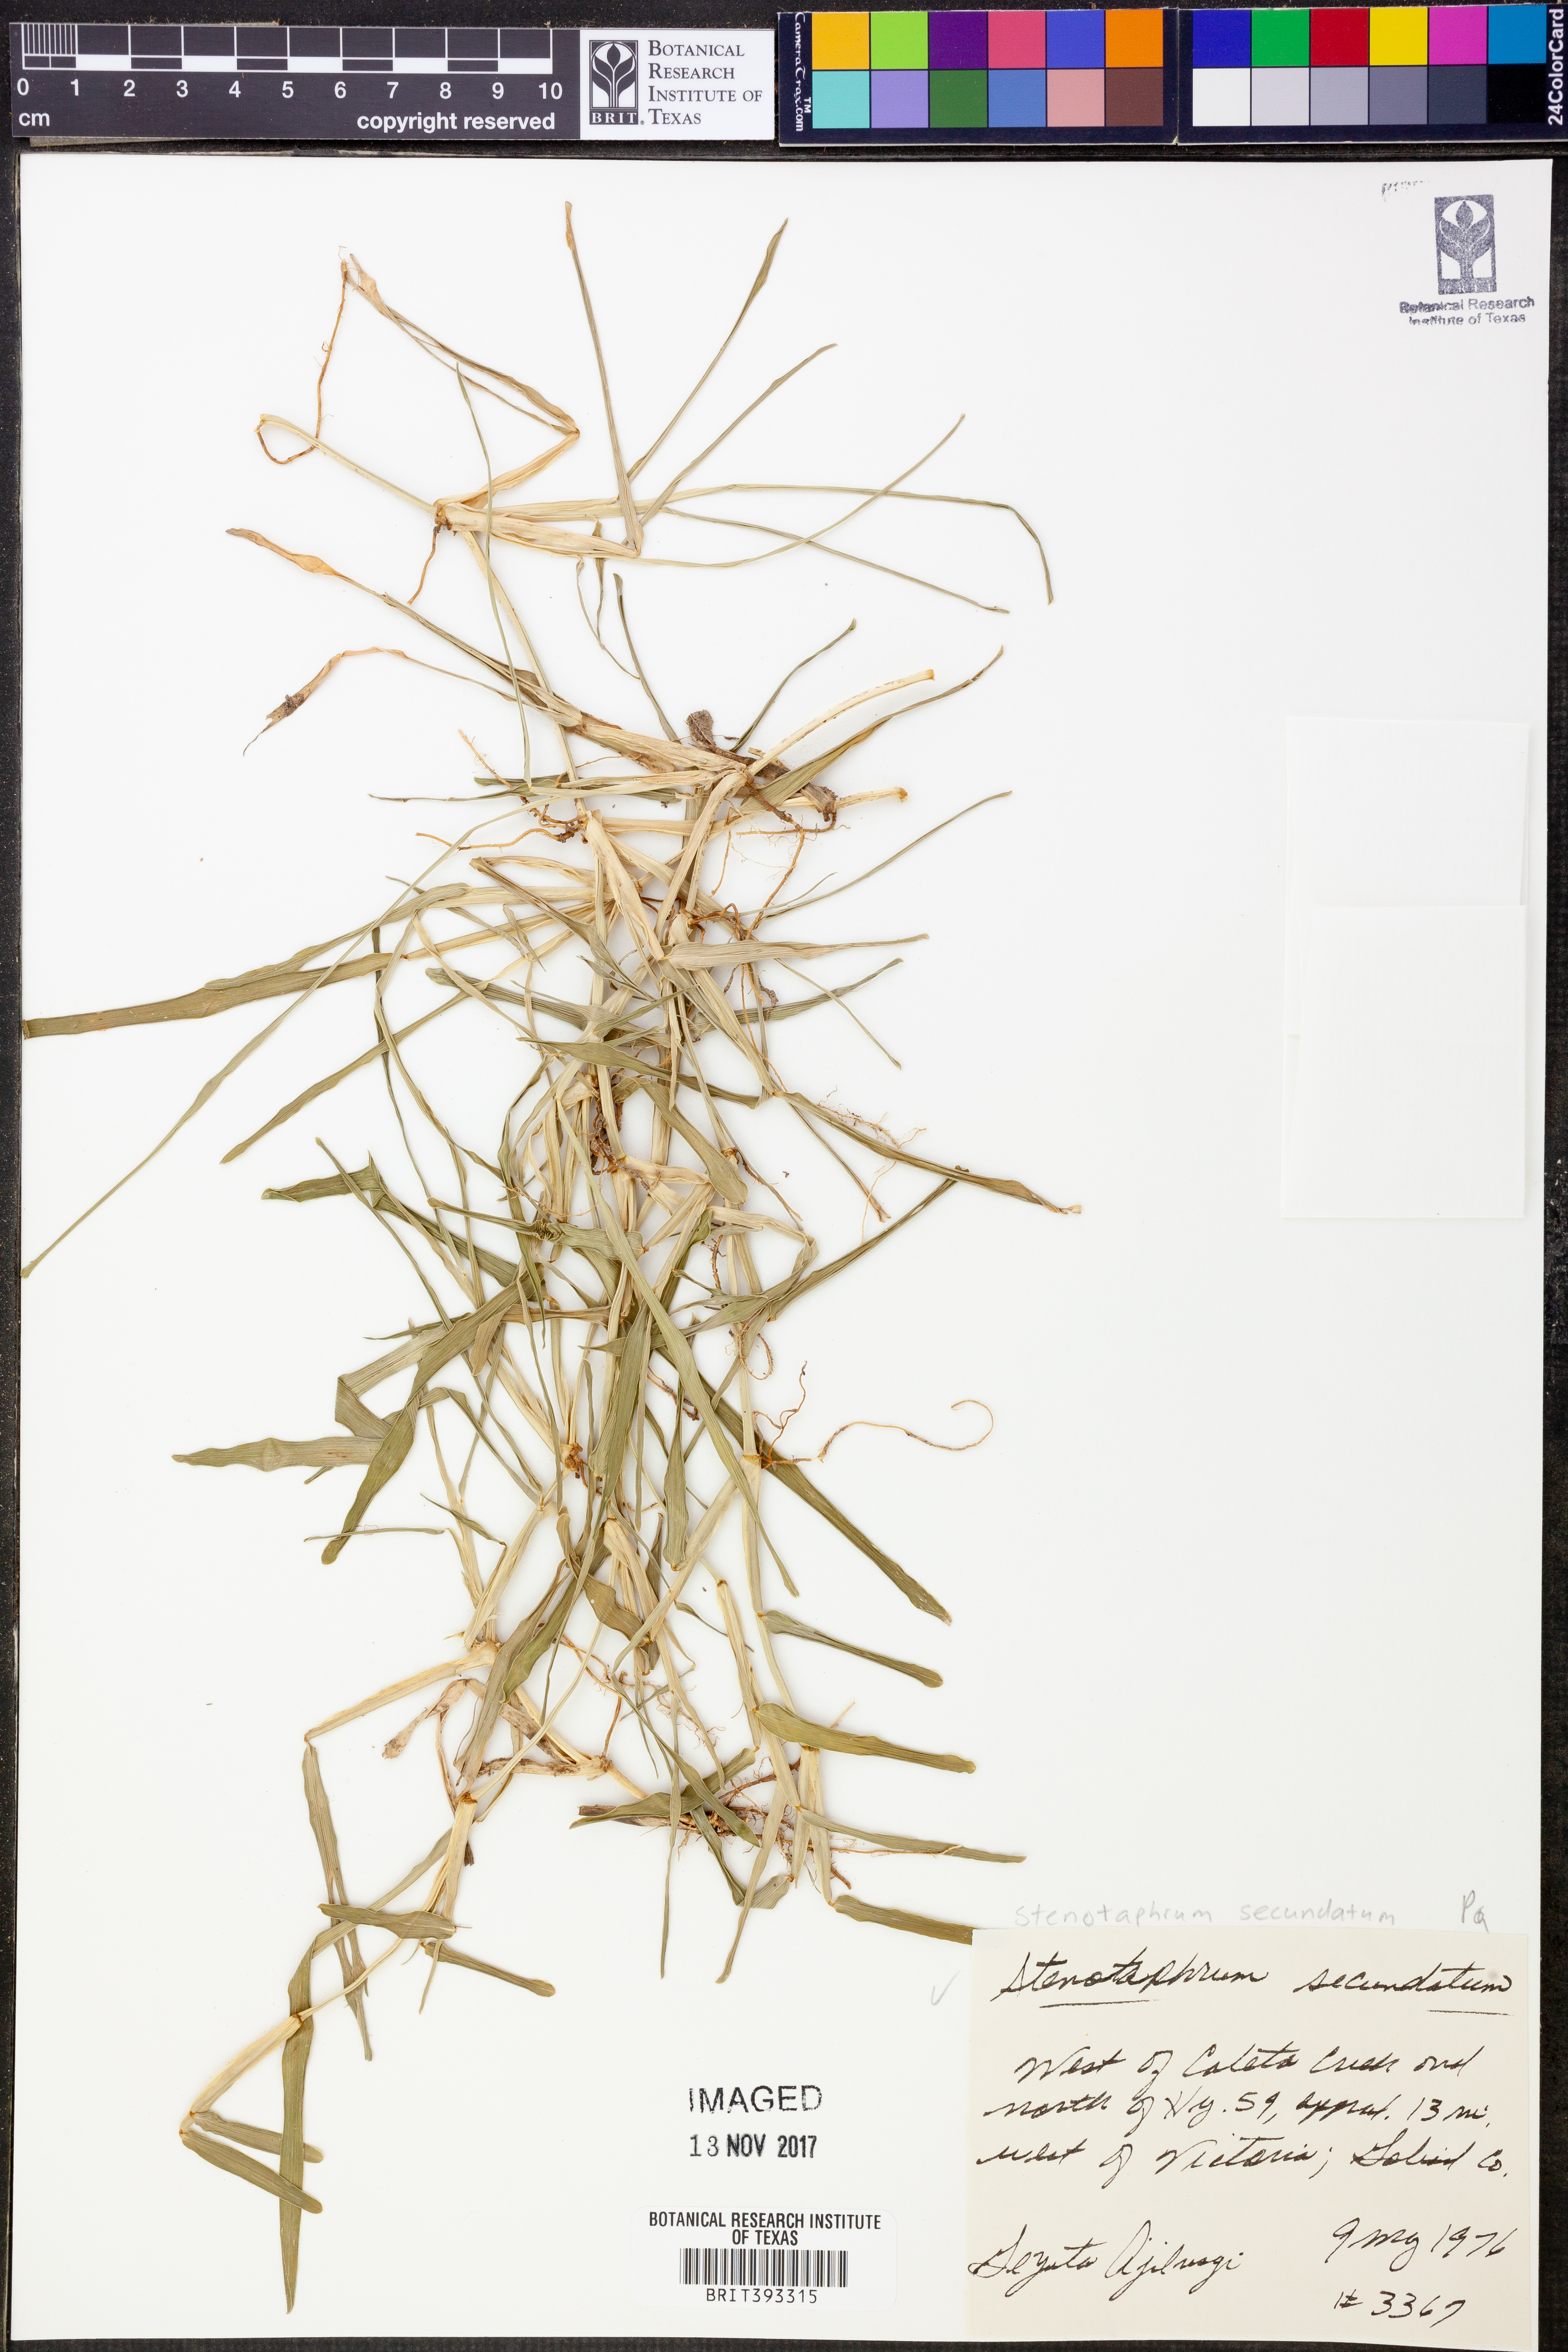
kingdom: Plantae
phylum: Tracheophyta
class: Liliopsida
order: Poales
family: Poaceae
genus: Stenotaphrum
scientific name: Stenotaphrum secundatum
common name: St. augustine grass
